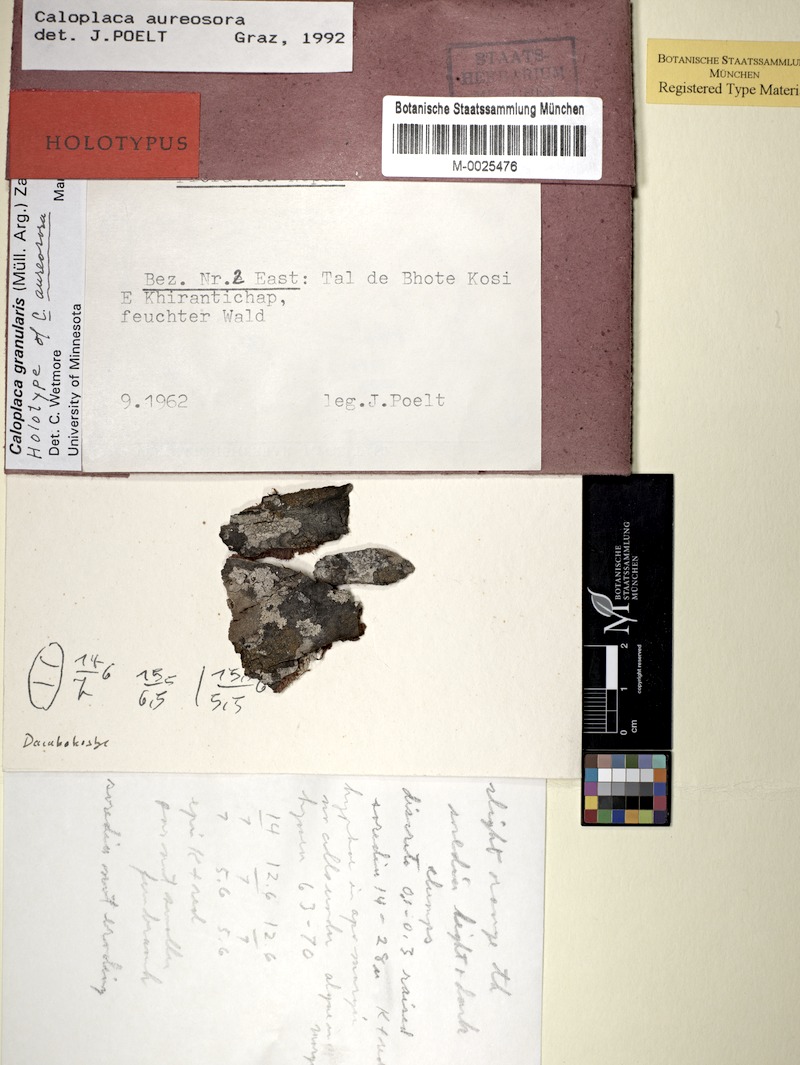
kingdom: Fungi
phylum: Ascomycota
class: Lecanoromycetes
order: Teloschistales
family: Teloschistaceae
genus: Caloplaca
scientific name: Caloplaca
